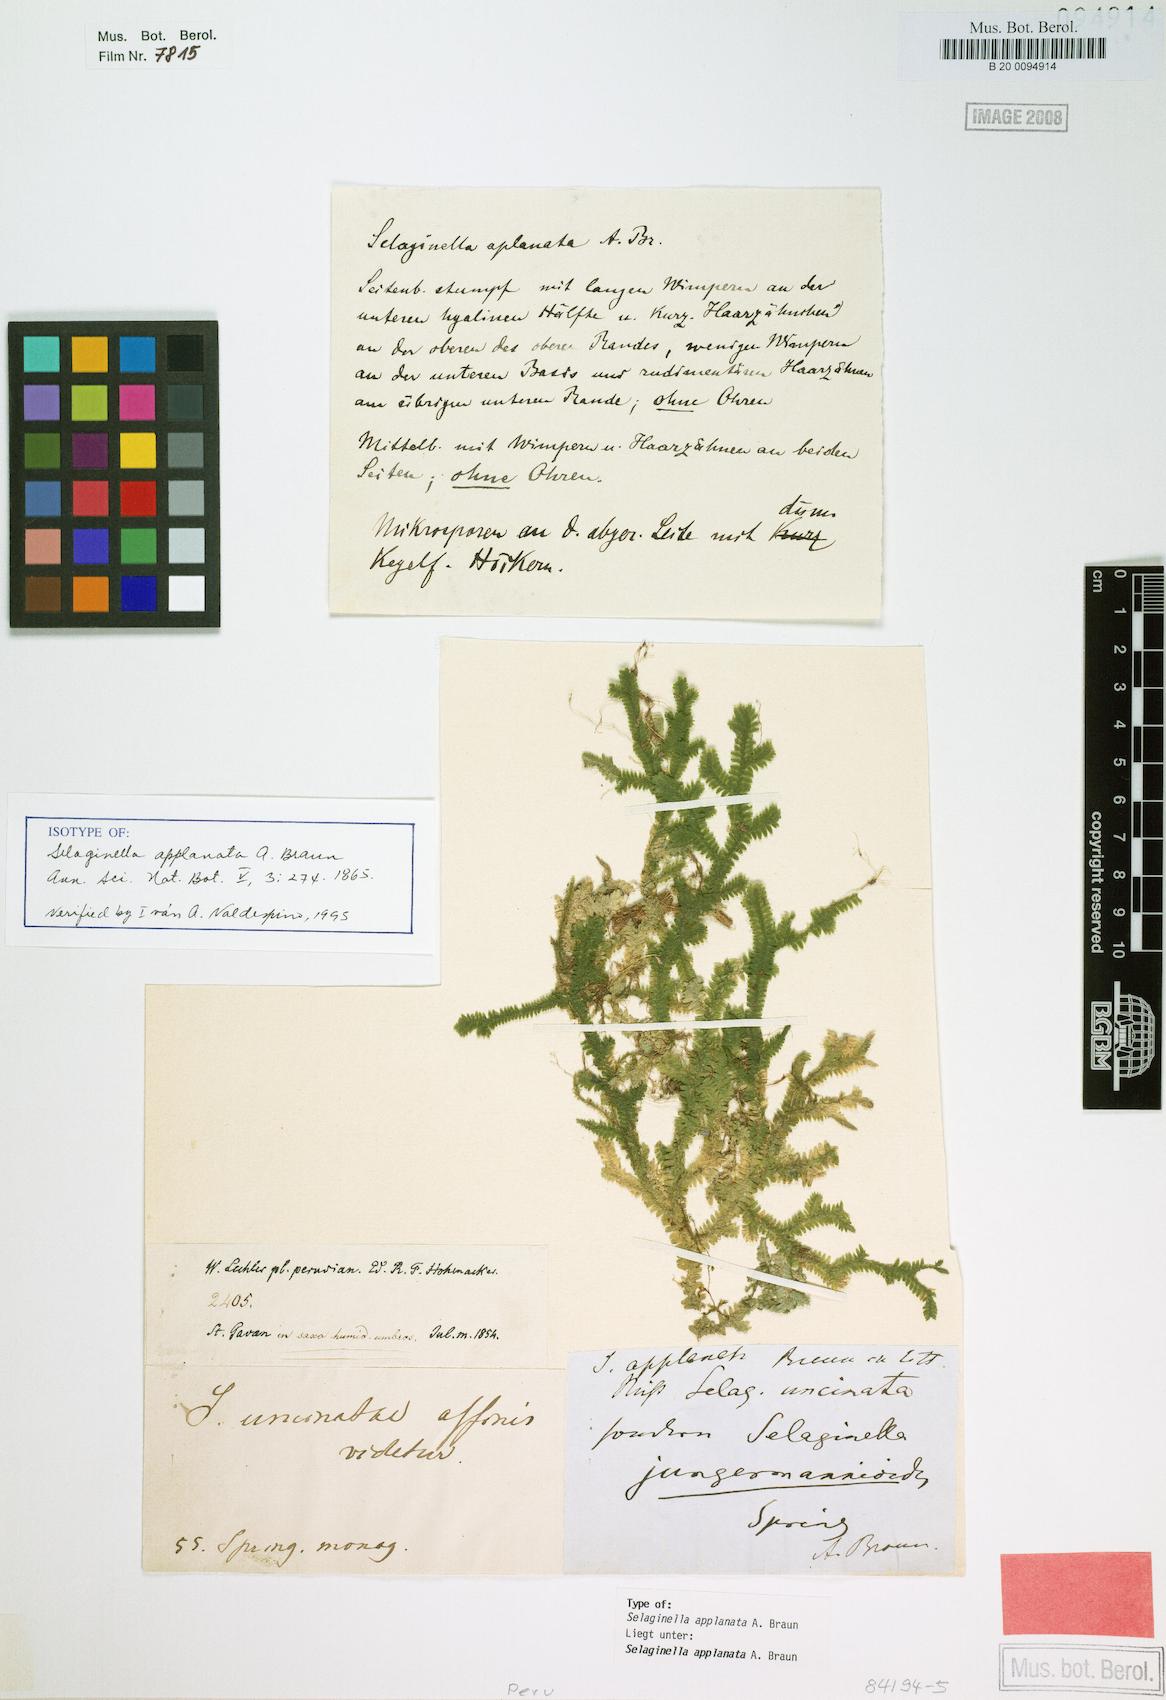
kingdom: Plantae
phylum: Tracheophyta
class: Lycopodiopsida
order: Selaginellales
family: Selaginellaceae
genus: Selaginella
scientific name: Selaginella applanata
